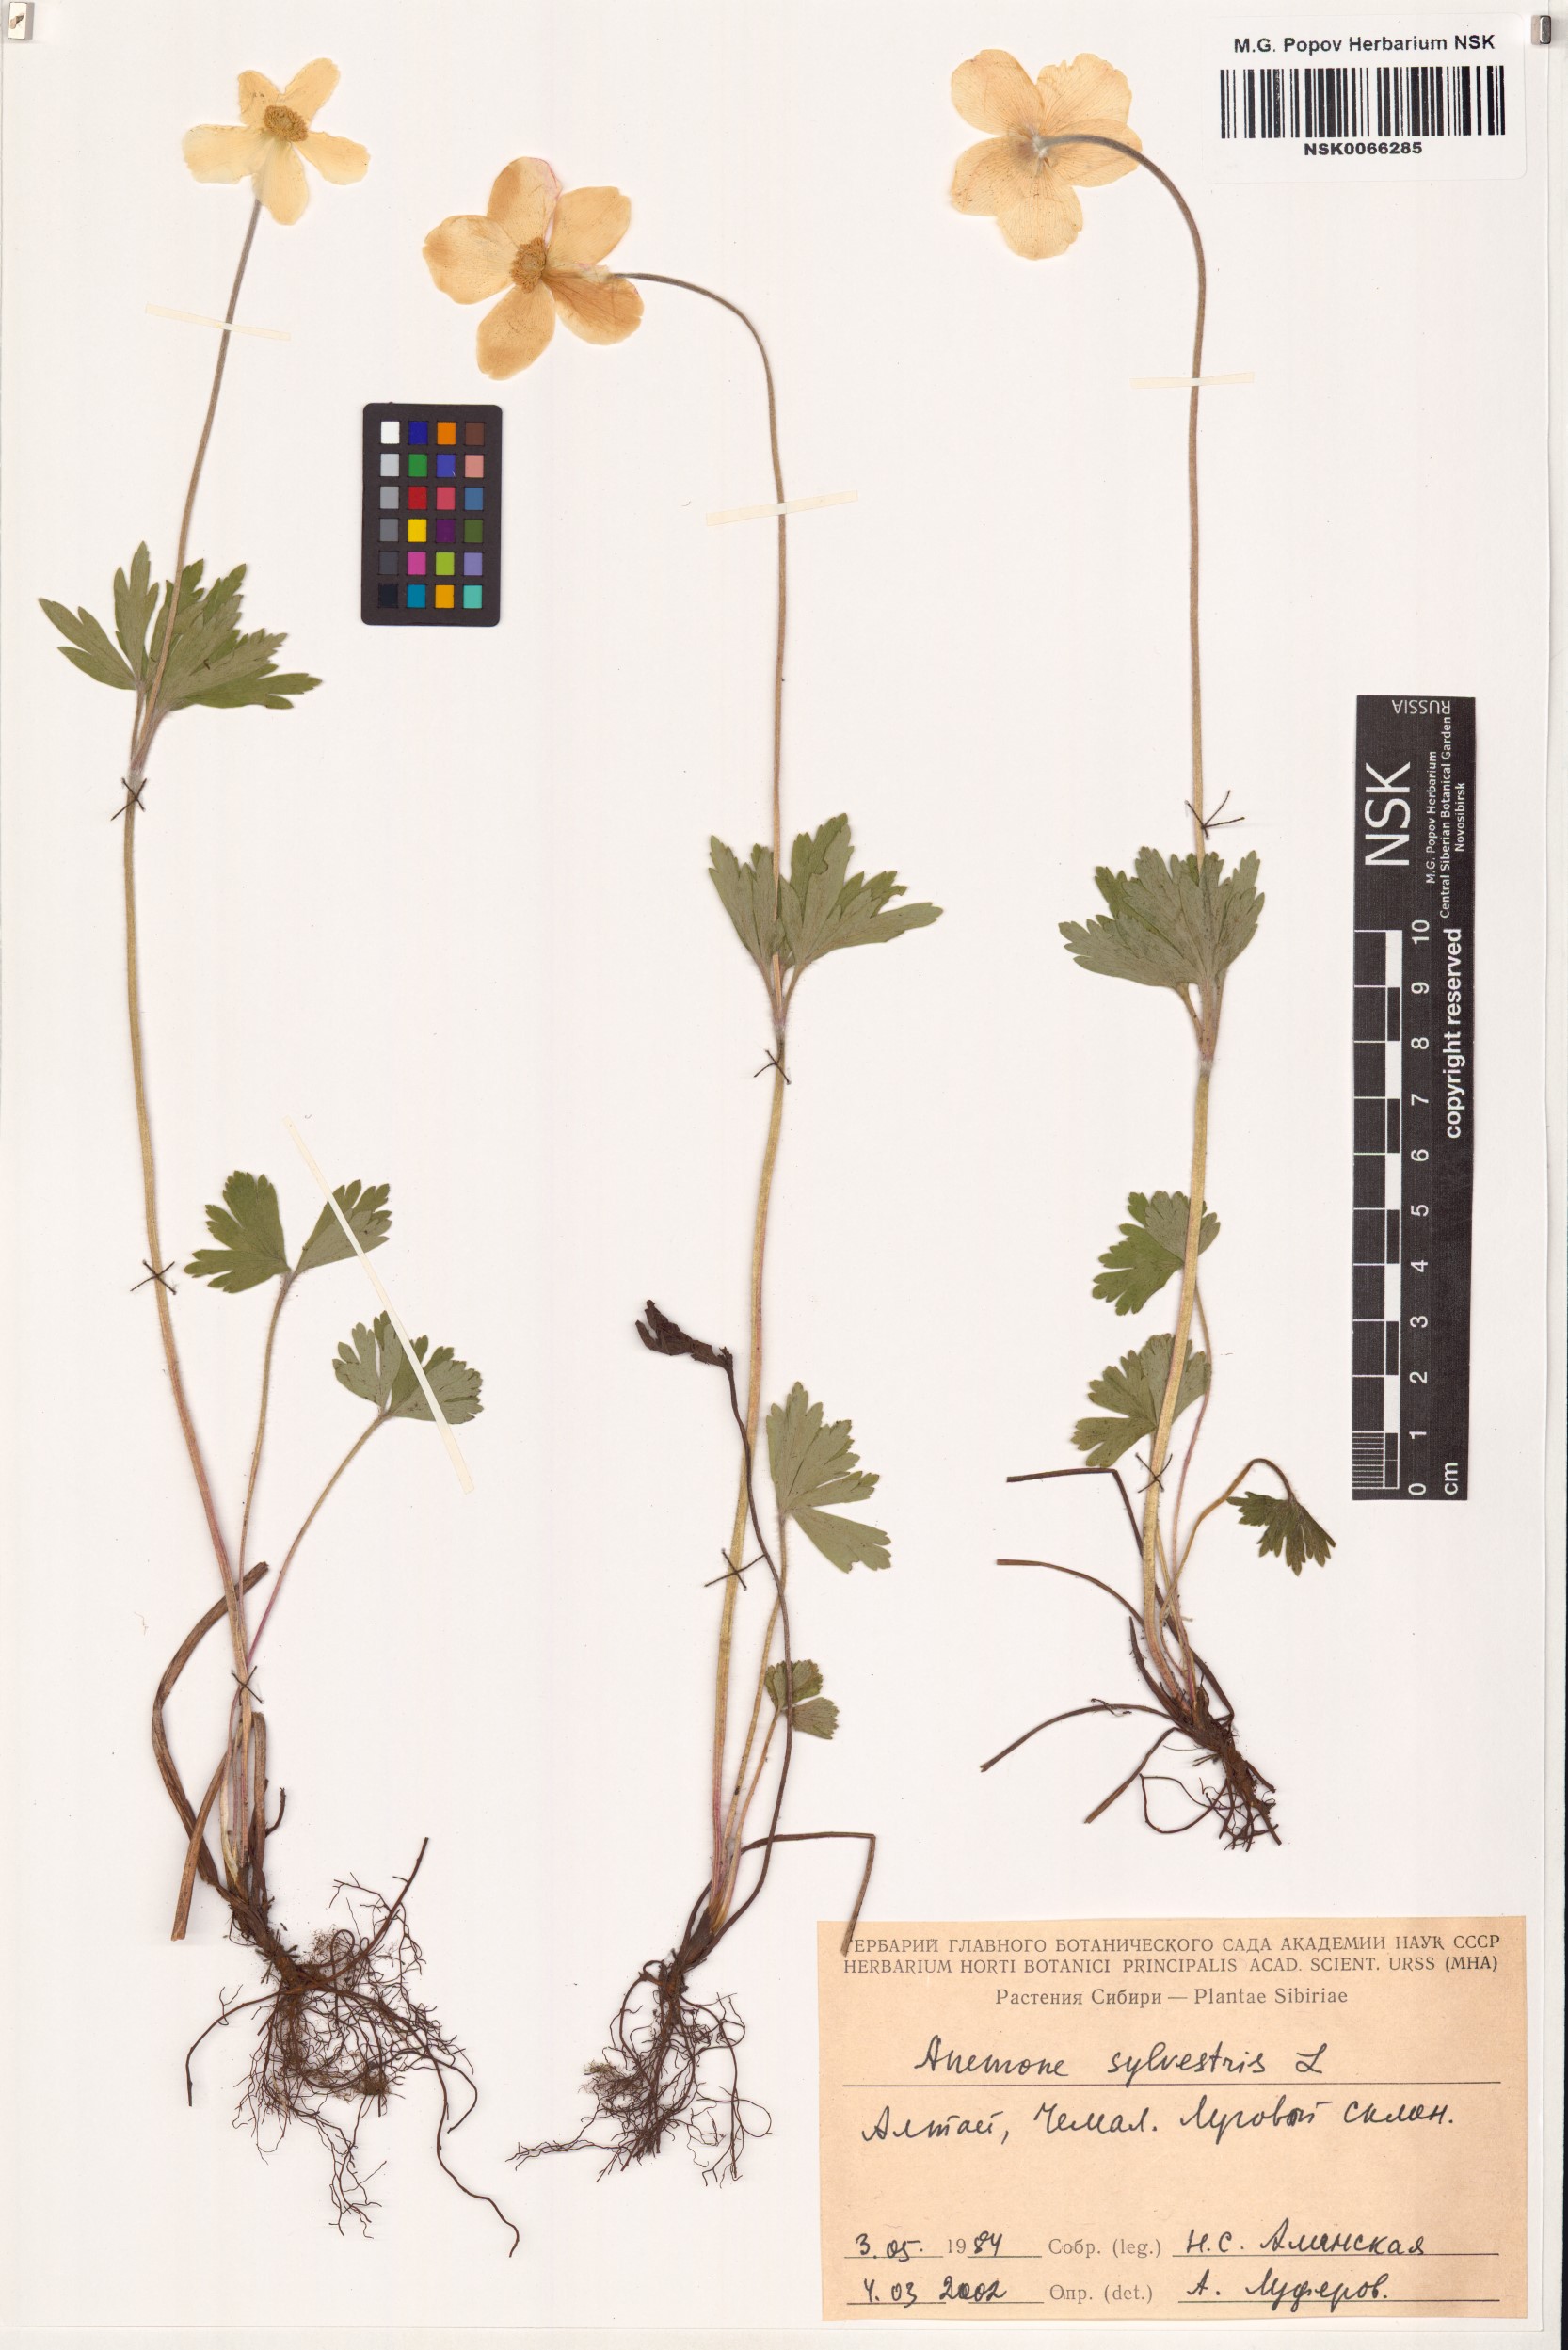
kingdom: Plantae
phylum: Tracheophyta
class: Magnoliopsida
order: Ranunculales
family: Ranunculaceae
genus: Anemone
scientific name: Anemone sylvestris
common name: Snowdrop anemone
